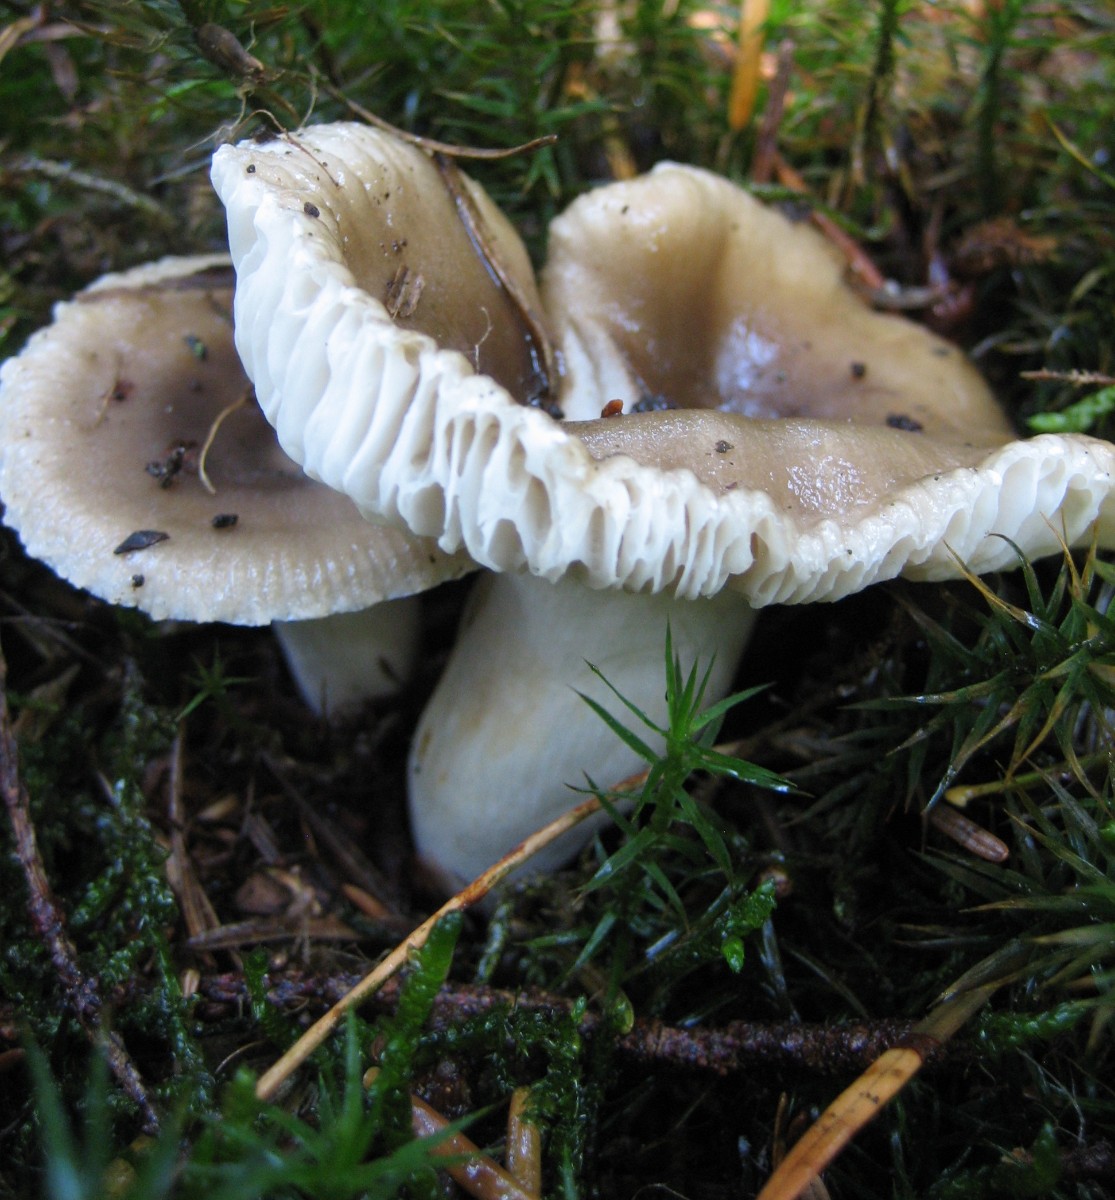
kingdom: Fungi
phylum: Basidiomycota
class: Agaricomycetes
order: Russulales
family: Russulaceae
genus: Russula
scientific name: Russula amoenolens
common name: skarp kam-skørhat
